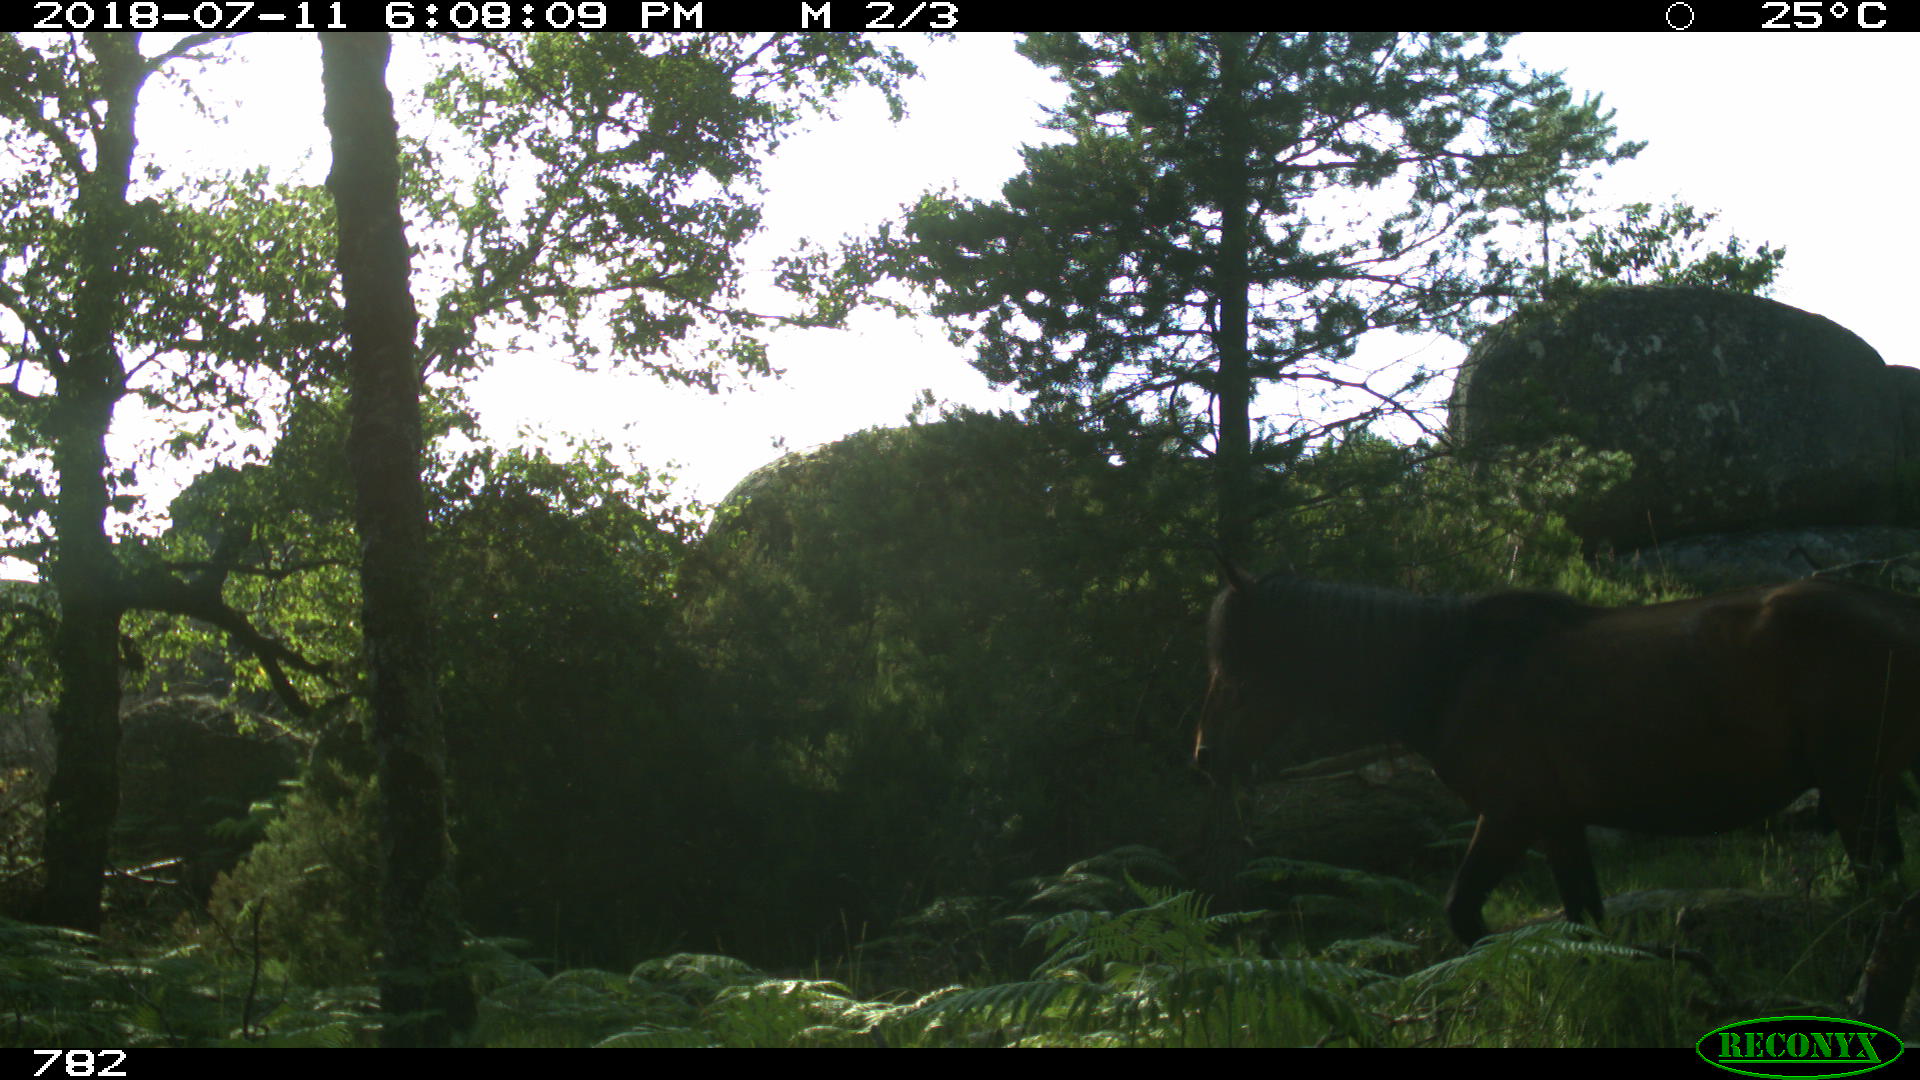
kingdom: Animalia
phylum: Chordata
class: Mammalia
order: Perissodactyla
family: Equidae
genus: Equus
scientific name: Equus caballus
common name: Horse
